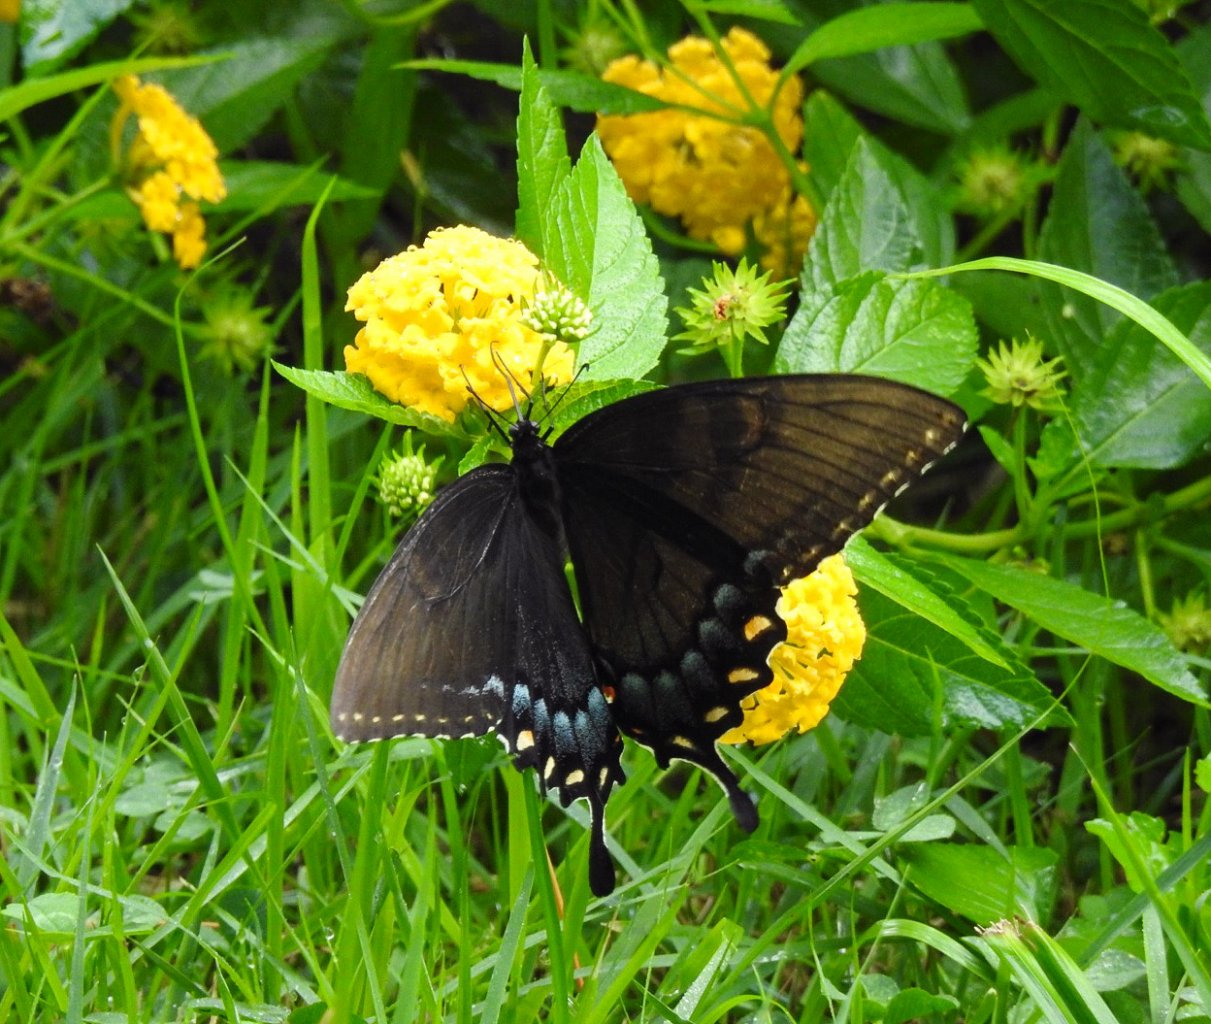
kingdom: Animalia
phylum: Arthropoda
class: Insecta
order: Lepidoptera
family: Papilionidae
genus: Pterourus
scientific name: Pterourus glaucus
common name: Eastern Tiger Swallowtail
